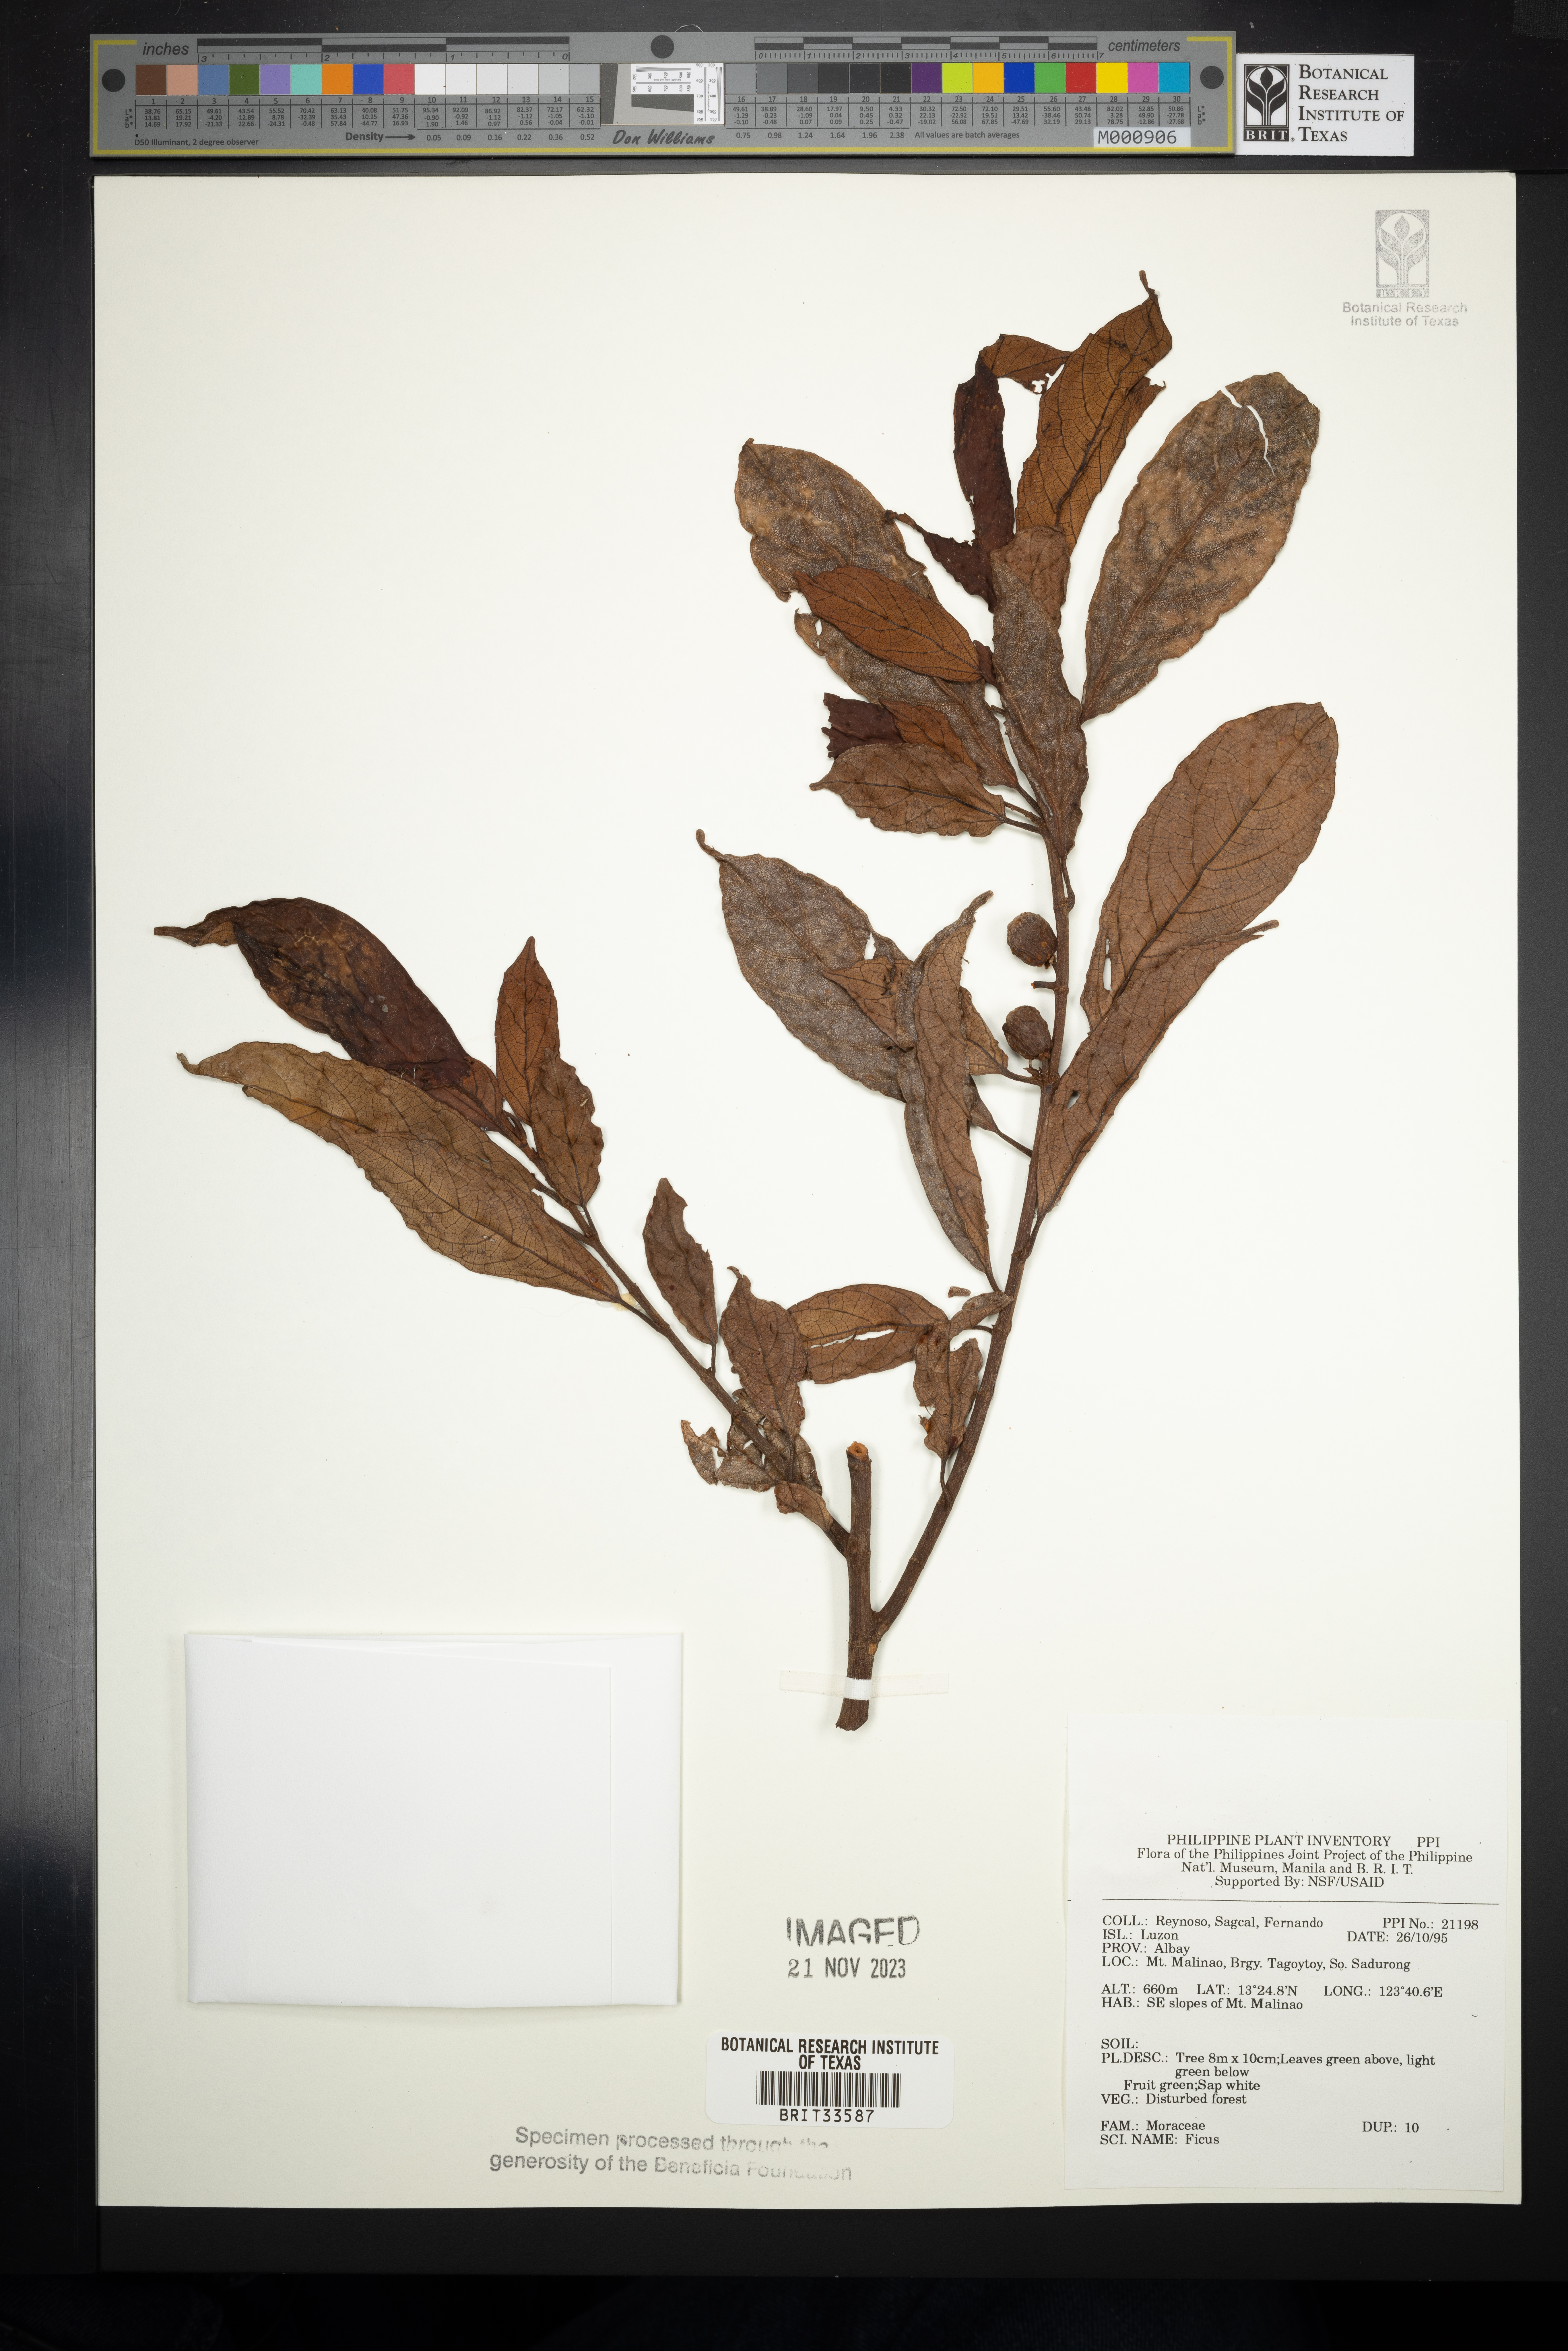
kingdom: Plantae
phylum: Tracheophyta
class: Magnoliopsida
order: Rosales
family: Moraceae
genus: Ficus
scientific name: Ficus
